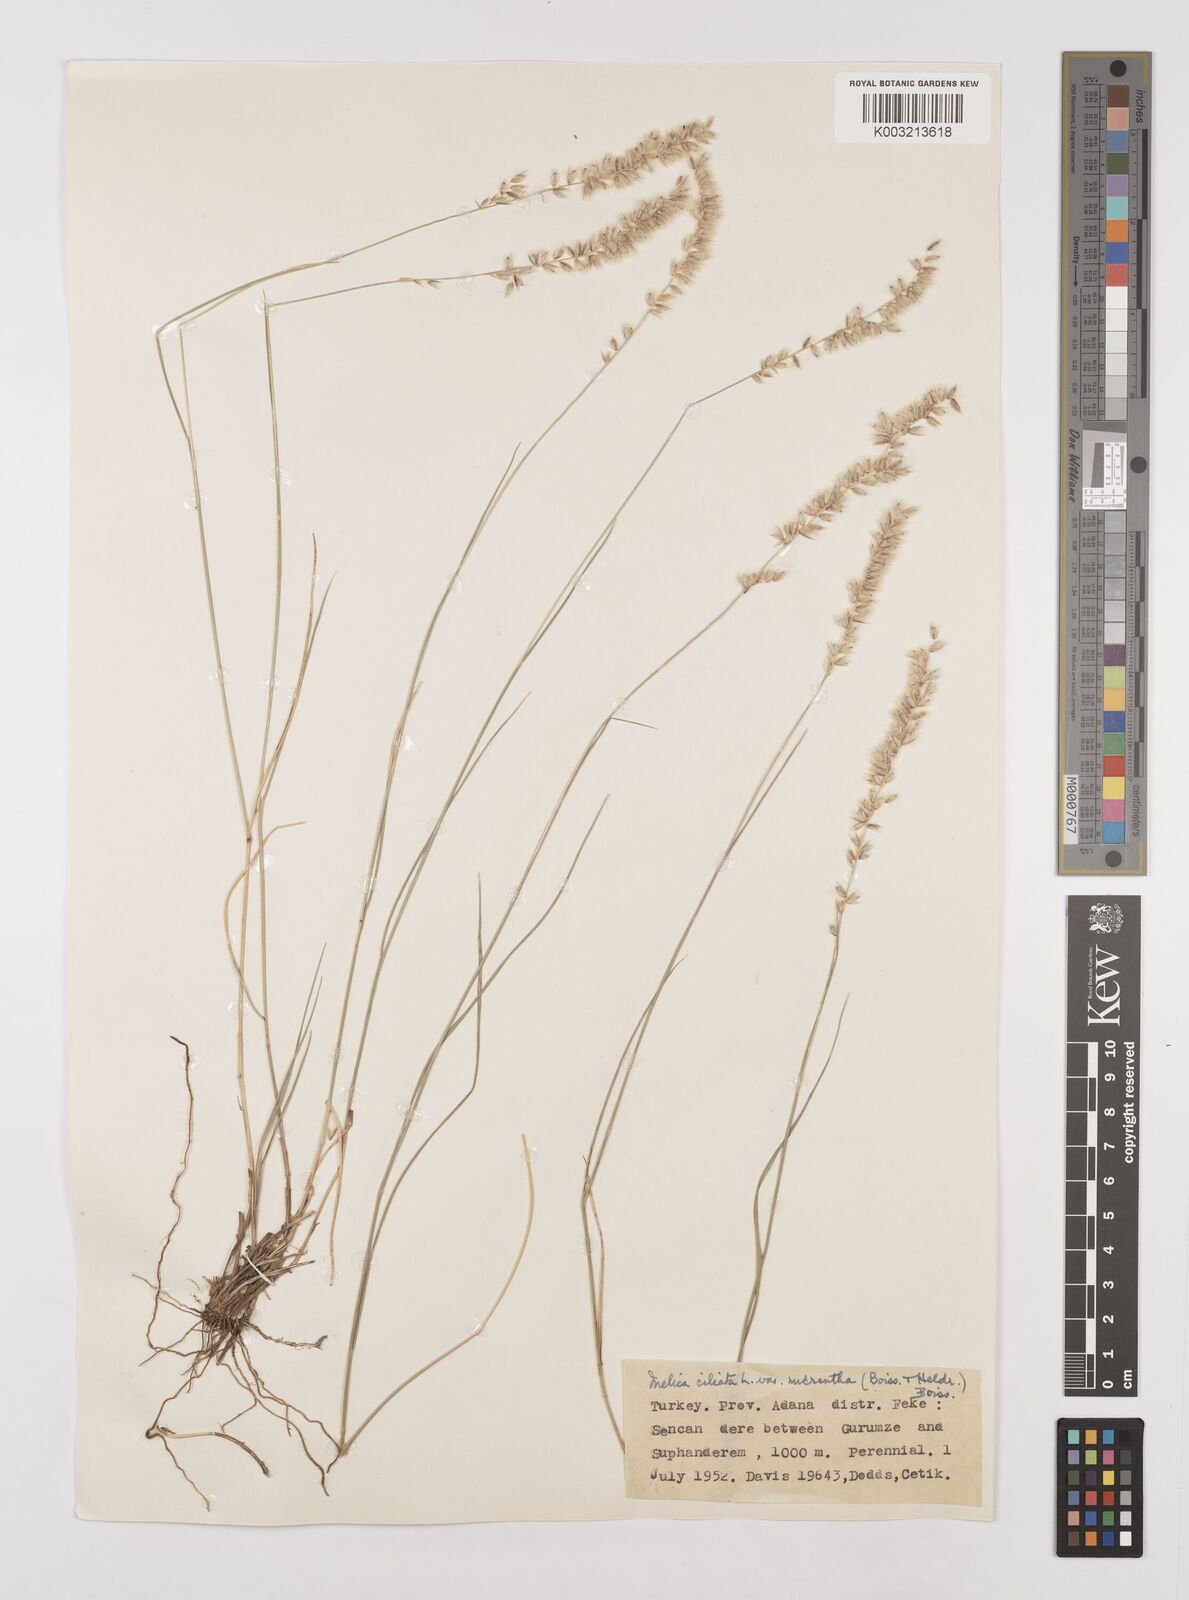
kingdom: Plantae
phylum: Tracheophyta
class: Liliopsida
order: Poales
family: Poaceae
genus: Melica
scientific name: Melica ciliata
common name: Hairy melicgrass
